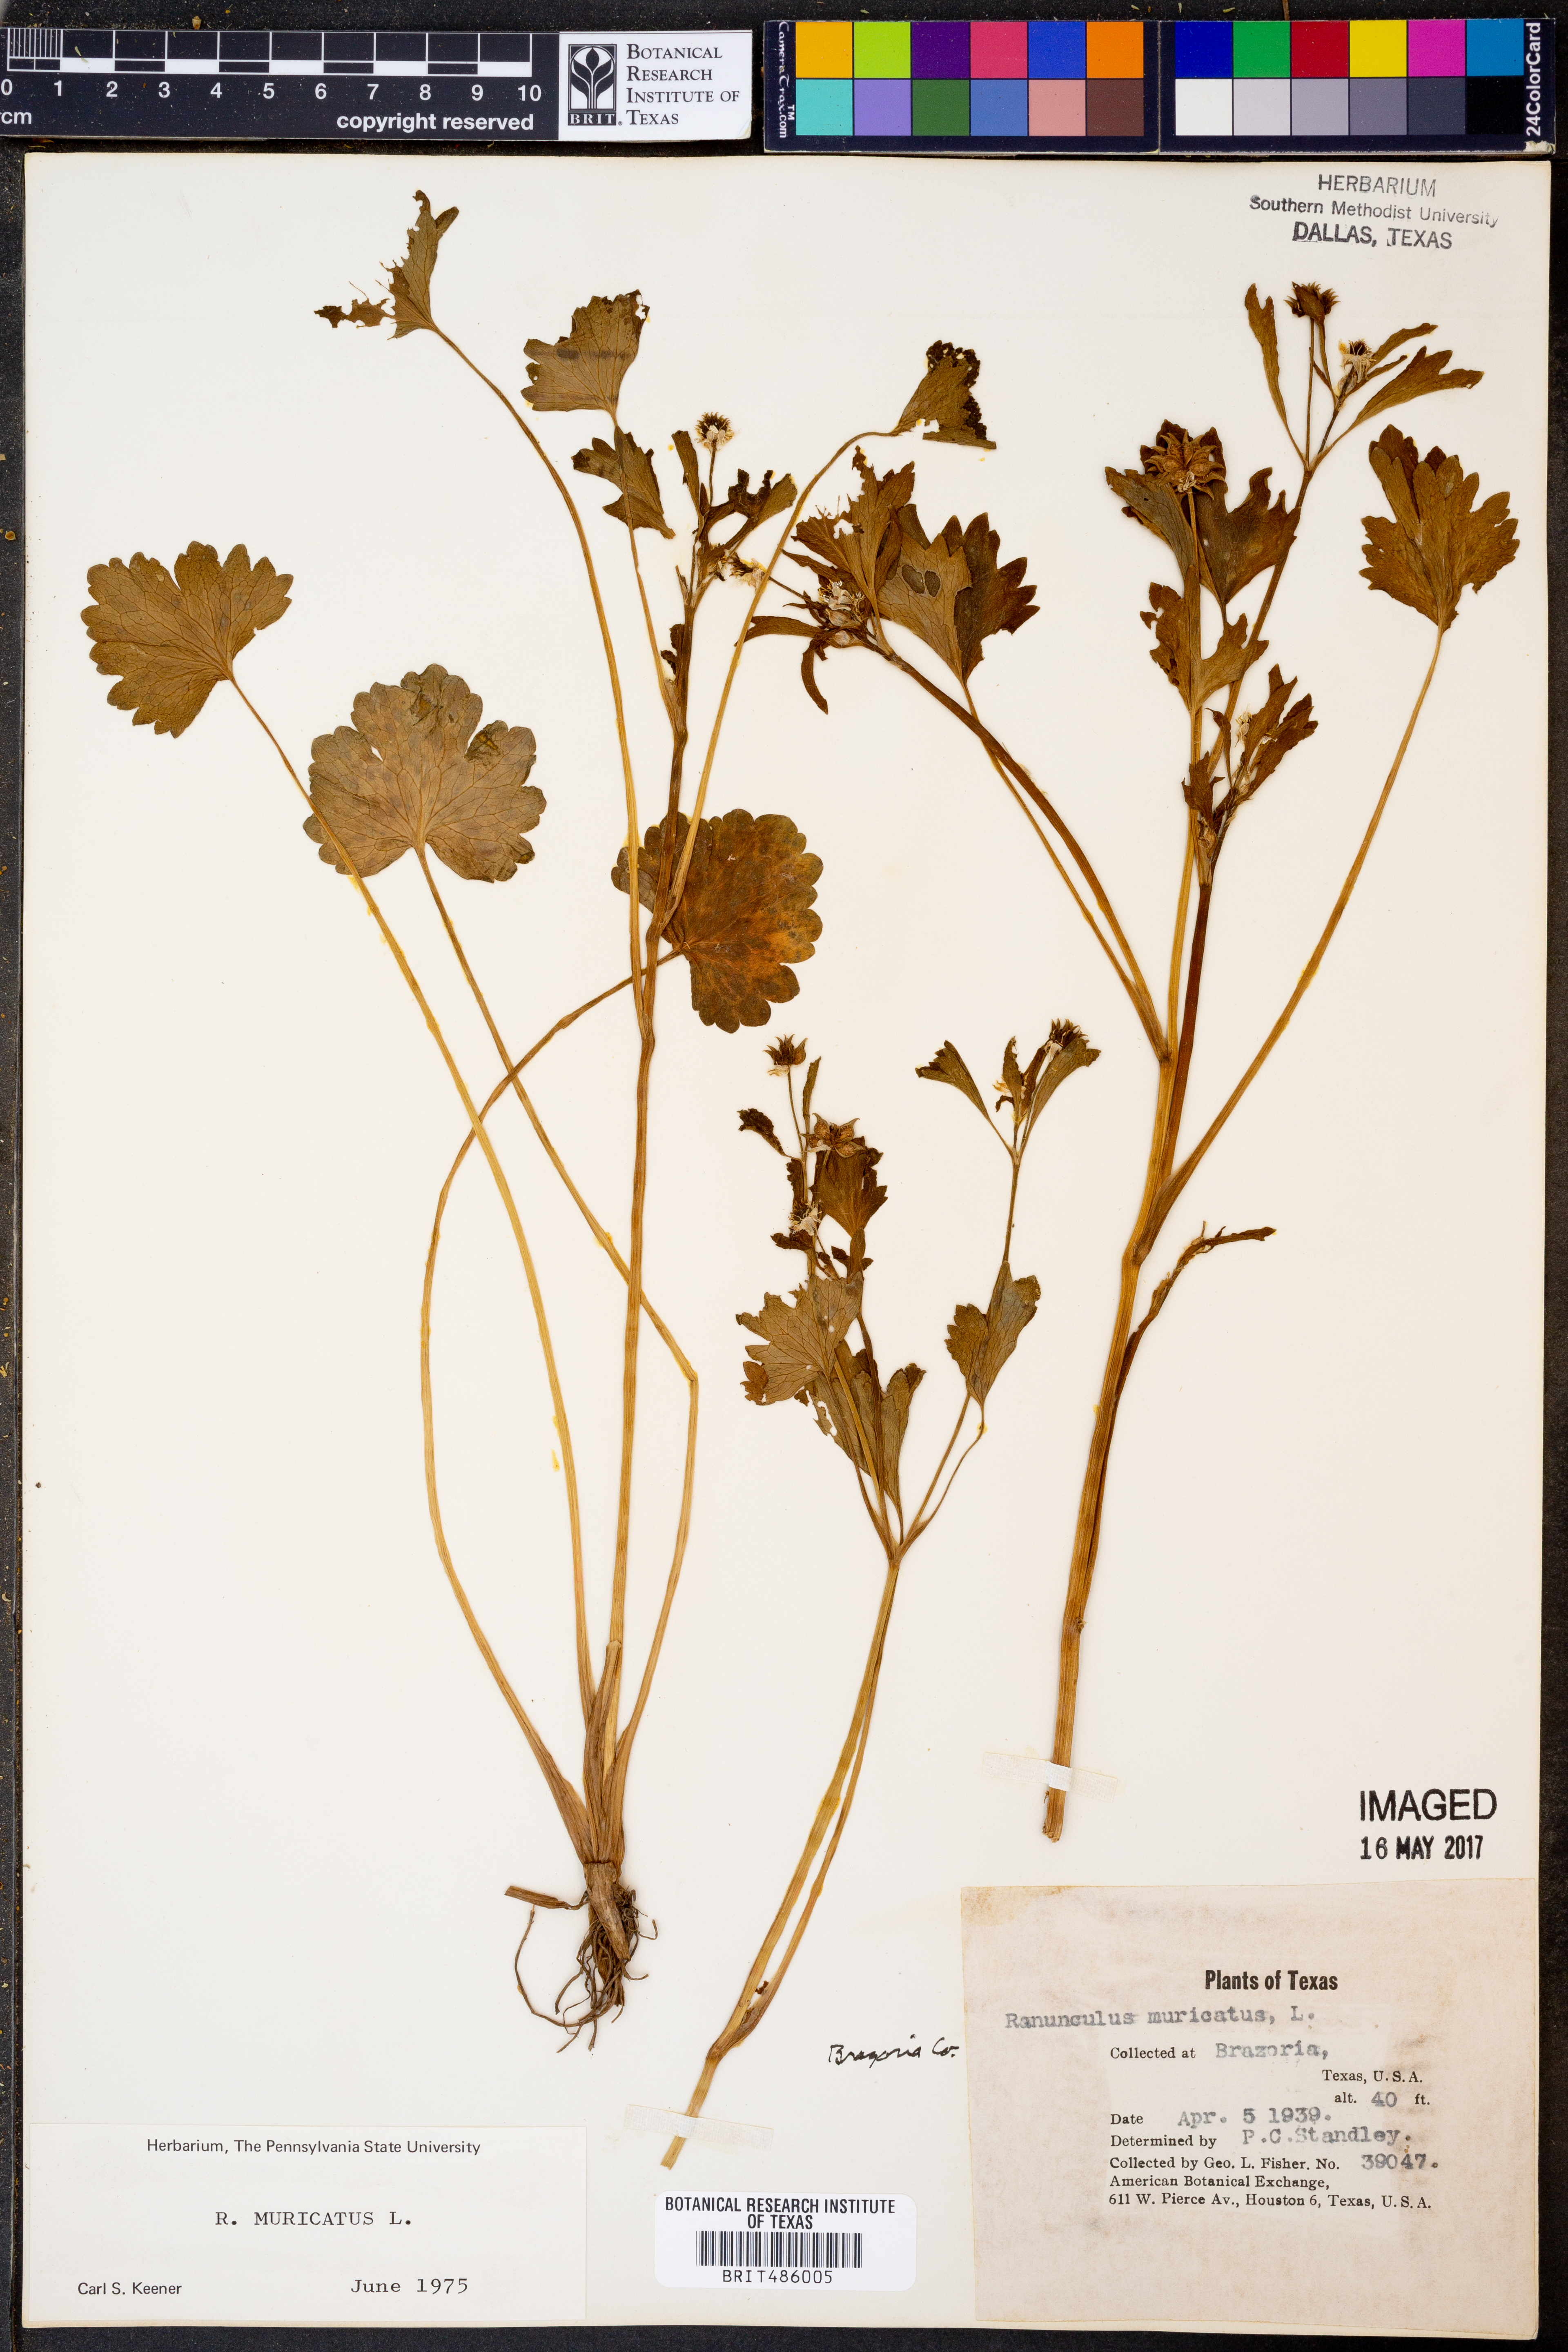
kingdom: Plantae
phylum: Tracheophyta
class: Magnoliopsida
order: Ranunculales
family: Ranunculaceae
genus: Ranunculus
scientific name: Ranunculus muricatus
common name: Rough-fruited buttercup
